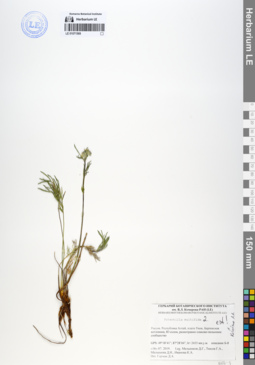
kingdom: Plantae
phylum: Tracheophyta
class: Magnoliopsida
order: Rosales
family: Rosaceae
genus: Potentilla
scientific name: Potentilla multifida
